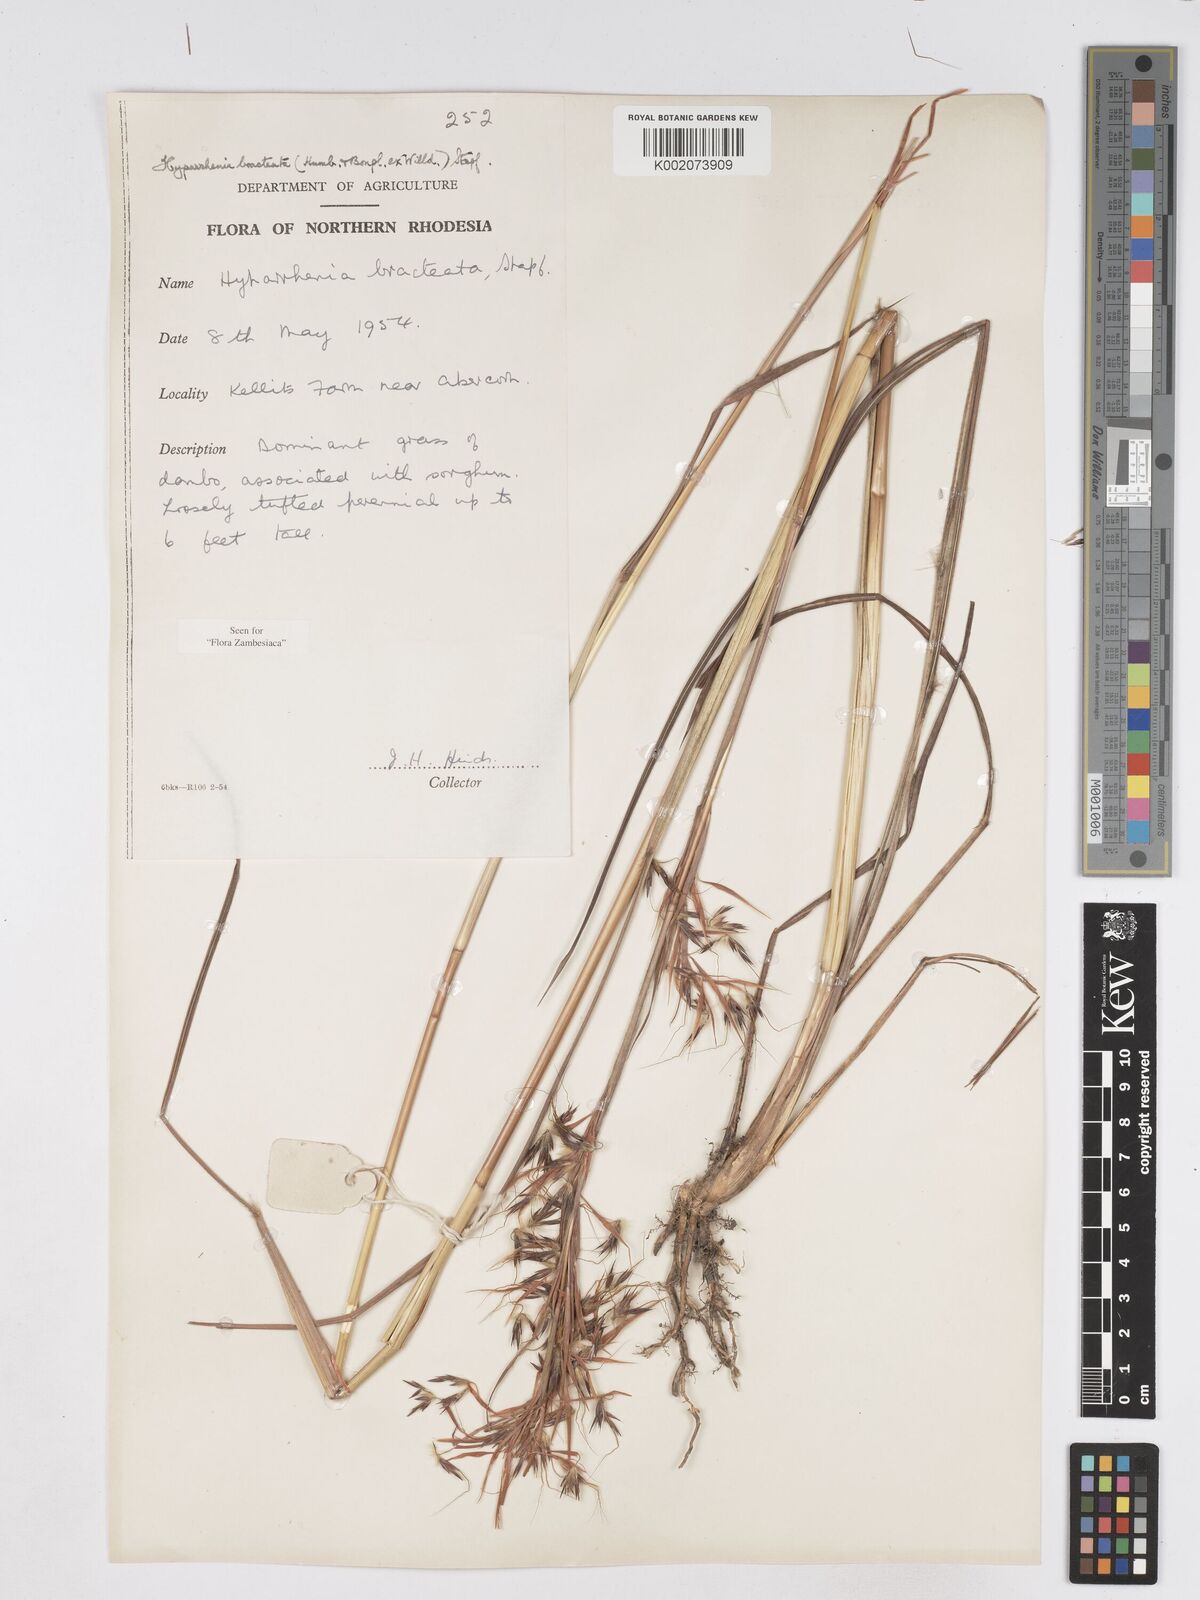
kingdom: Plantae
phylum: Tracheophyta
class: Liliopsida
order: Poales
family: Poaceae
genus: Hyparrhenia
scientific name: Hyparrhenia bracteata
